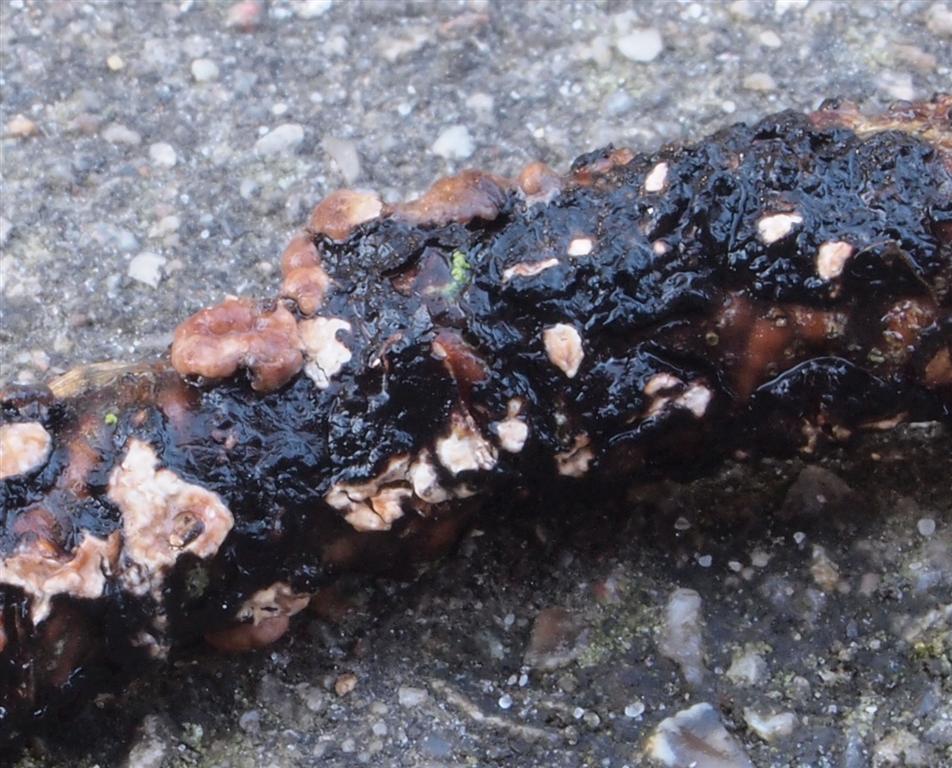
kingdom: Fungi
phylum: Basidiomycota
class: Agaricomycetes
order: Russulales
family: Peniophoraceae
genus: Peniophora
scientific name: Peniophora quercina
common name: ege-voksskind
